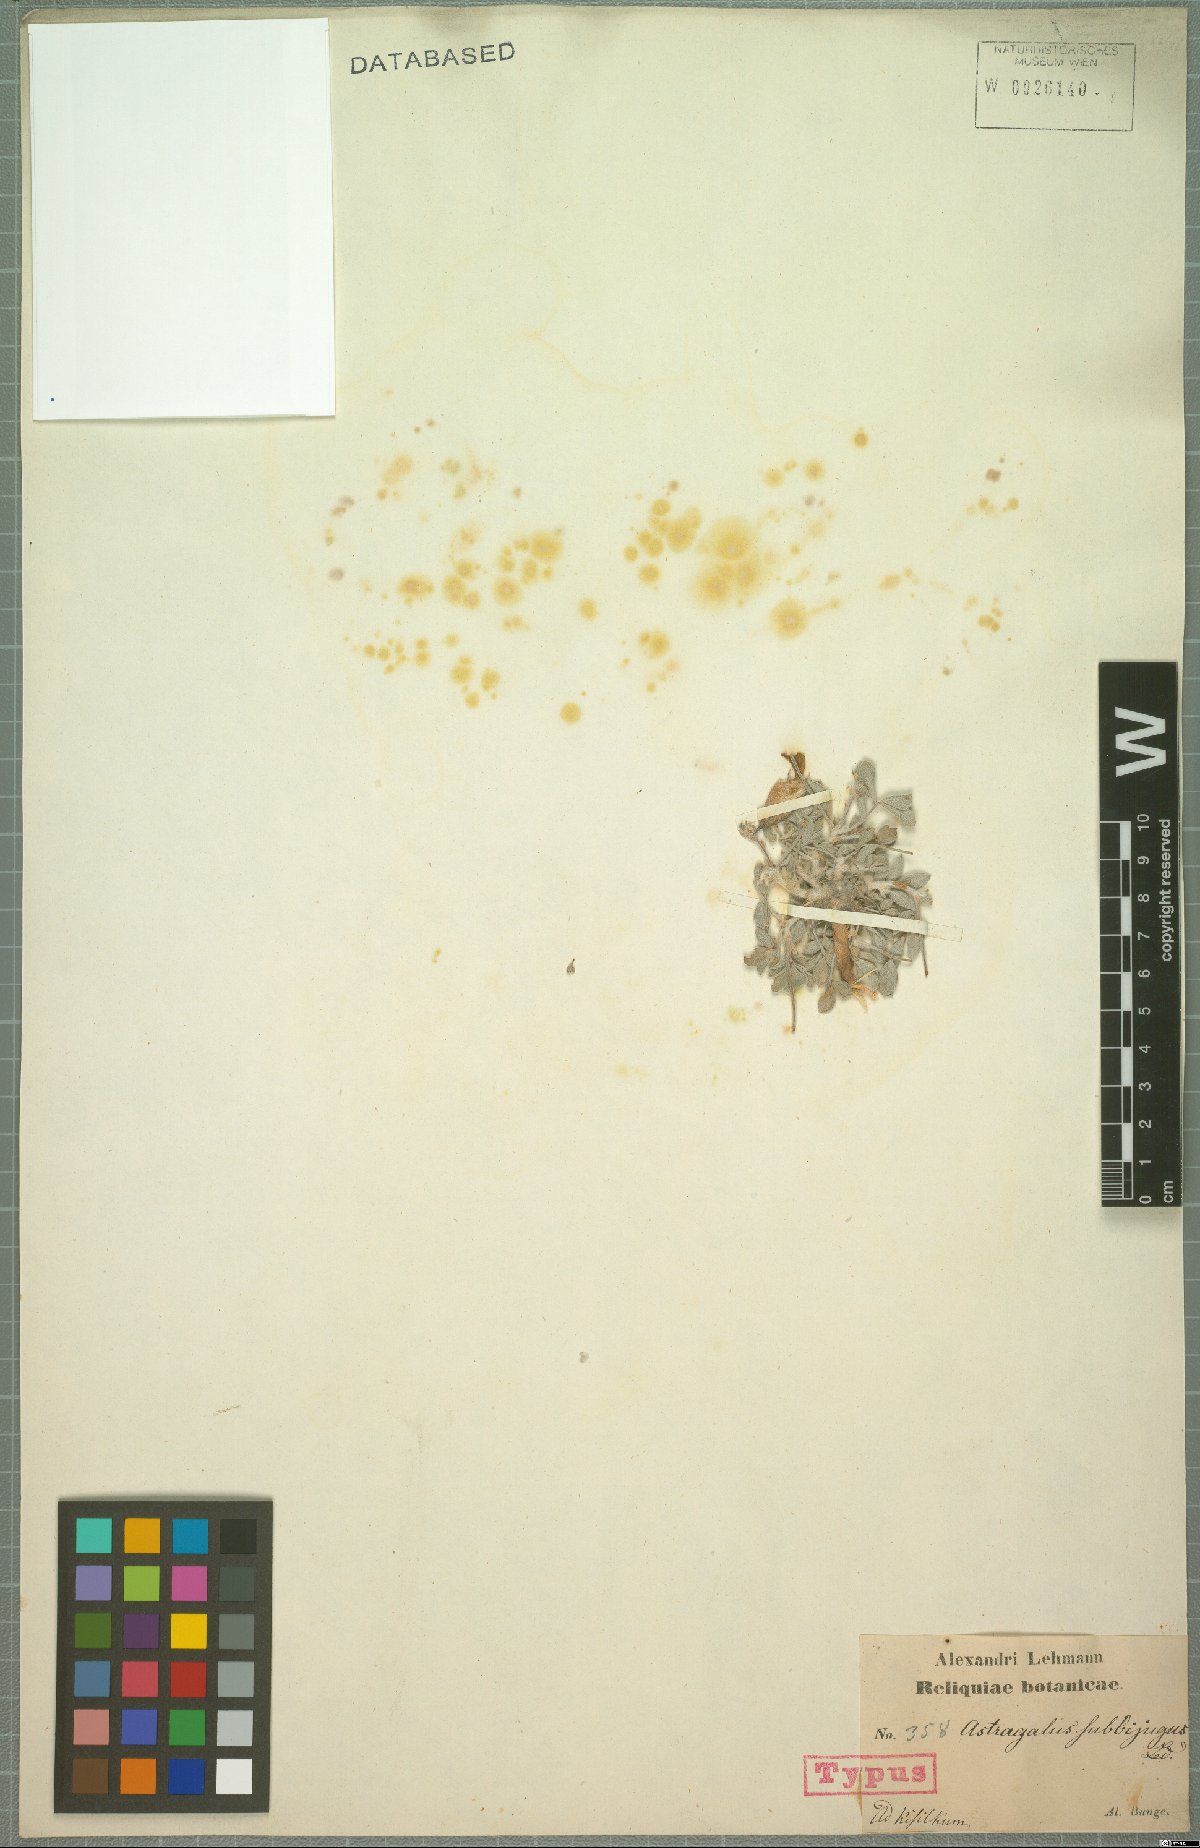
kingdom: Plantae
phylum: Tracheophyta
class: Magnoliopsida
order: Fabales
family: Fabaceae
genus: Astragalus
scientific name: Astragalus subbijugus
